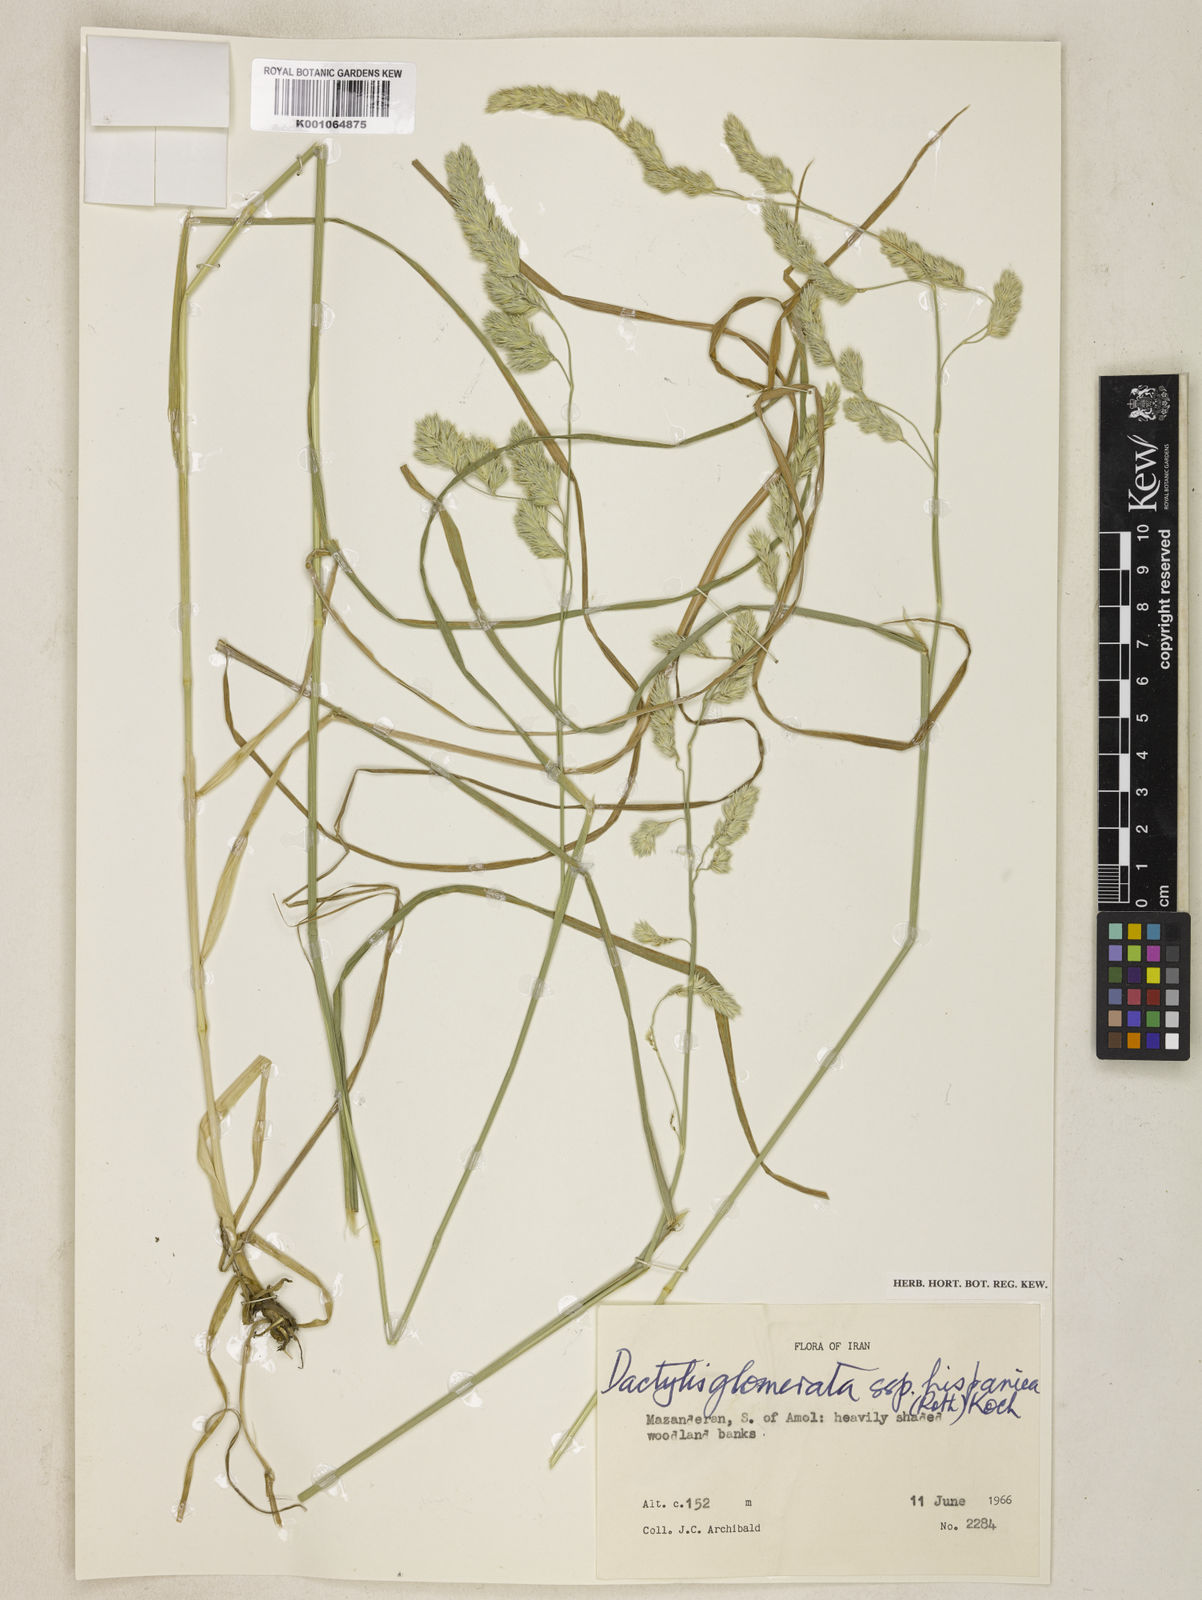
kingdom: Plantae
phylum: Tracheophyta
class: Liliopsida
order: Poales
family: Poaceae
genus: Dactylis
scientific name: Dactylis glomerata
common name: Orchardgrass
